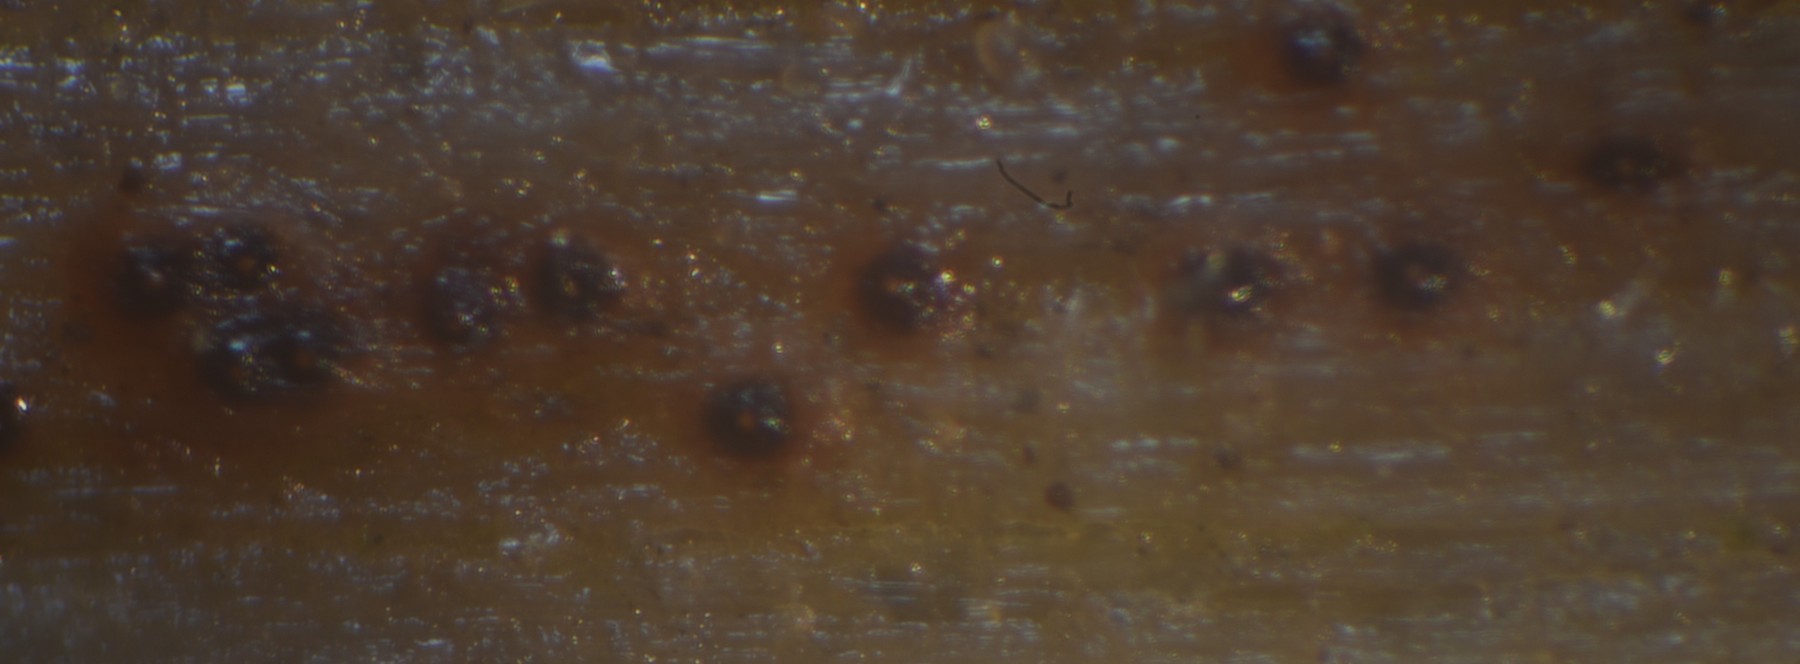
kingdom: Fungi
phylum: Ascomycota
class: Sordariomycetes
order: Hypocreales
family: Bionectriaceae
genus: Nectriella
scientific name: Nectriella atrorubra
